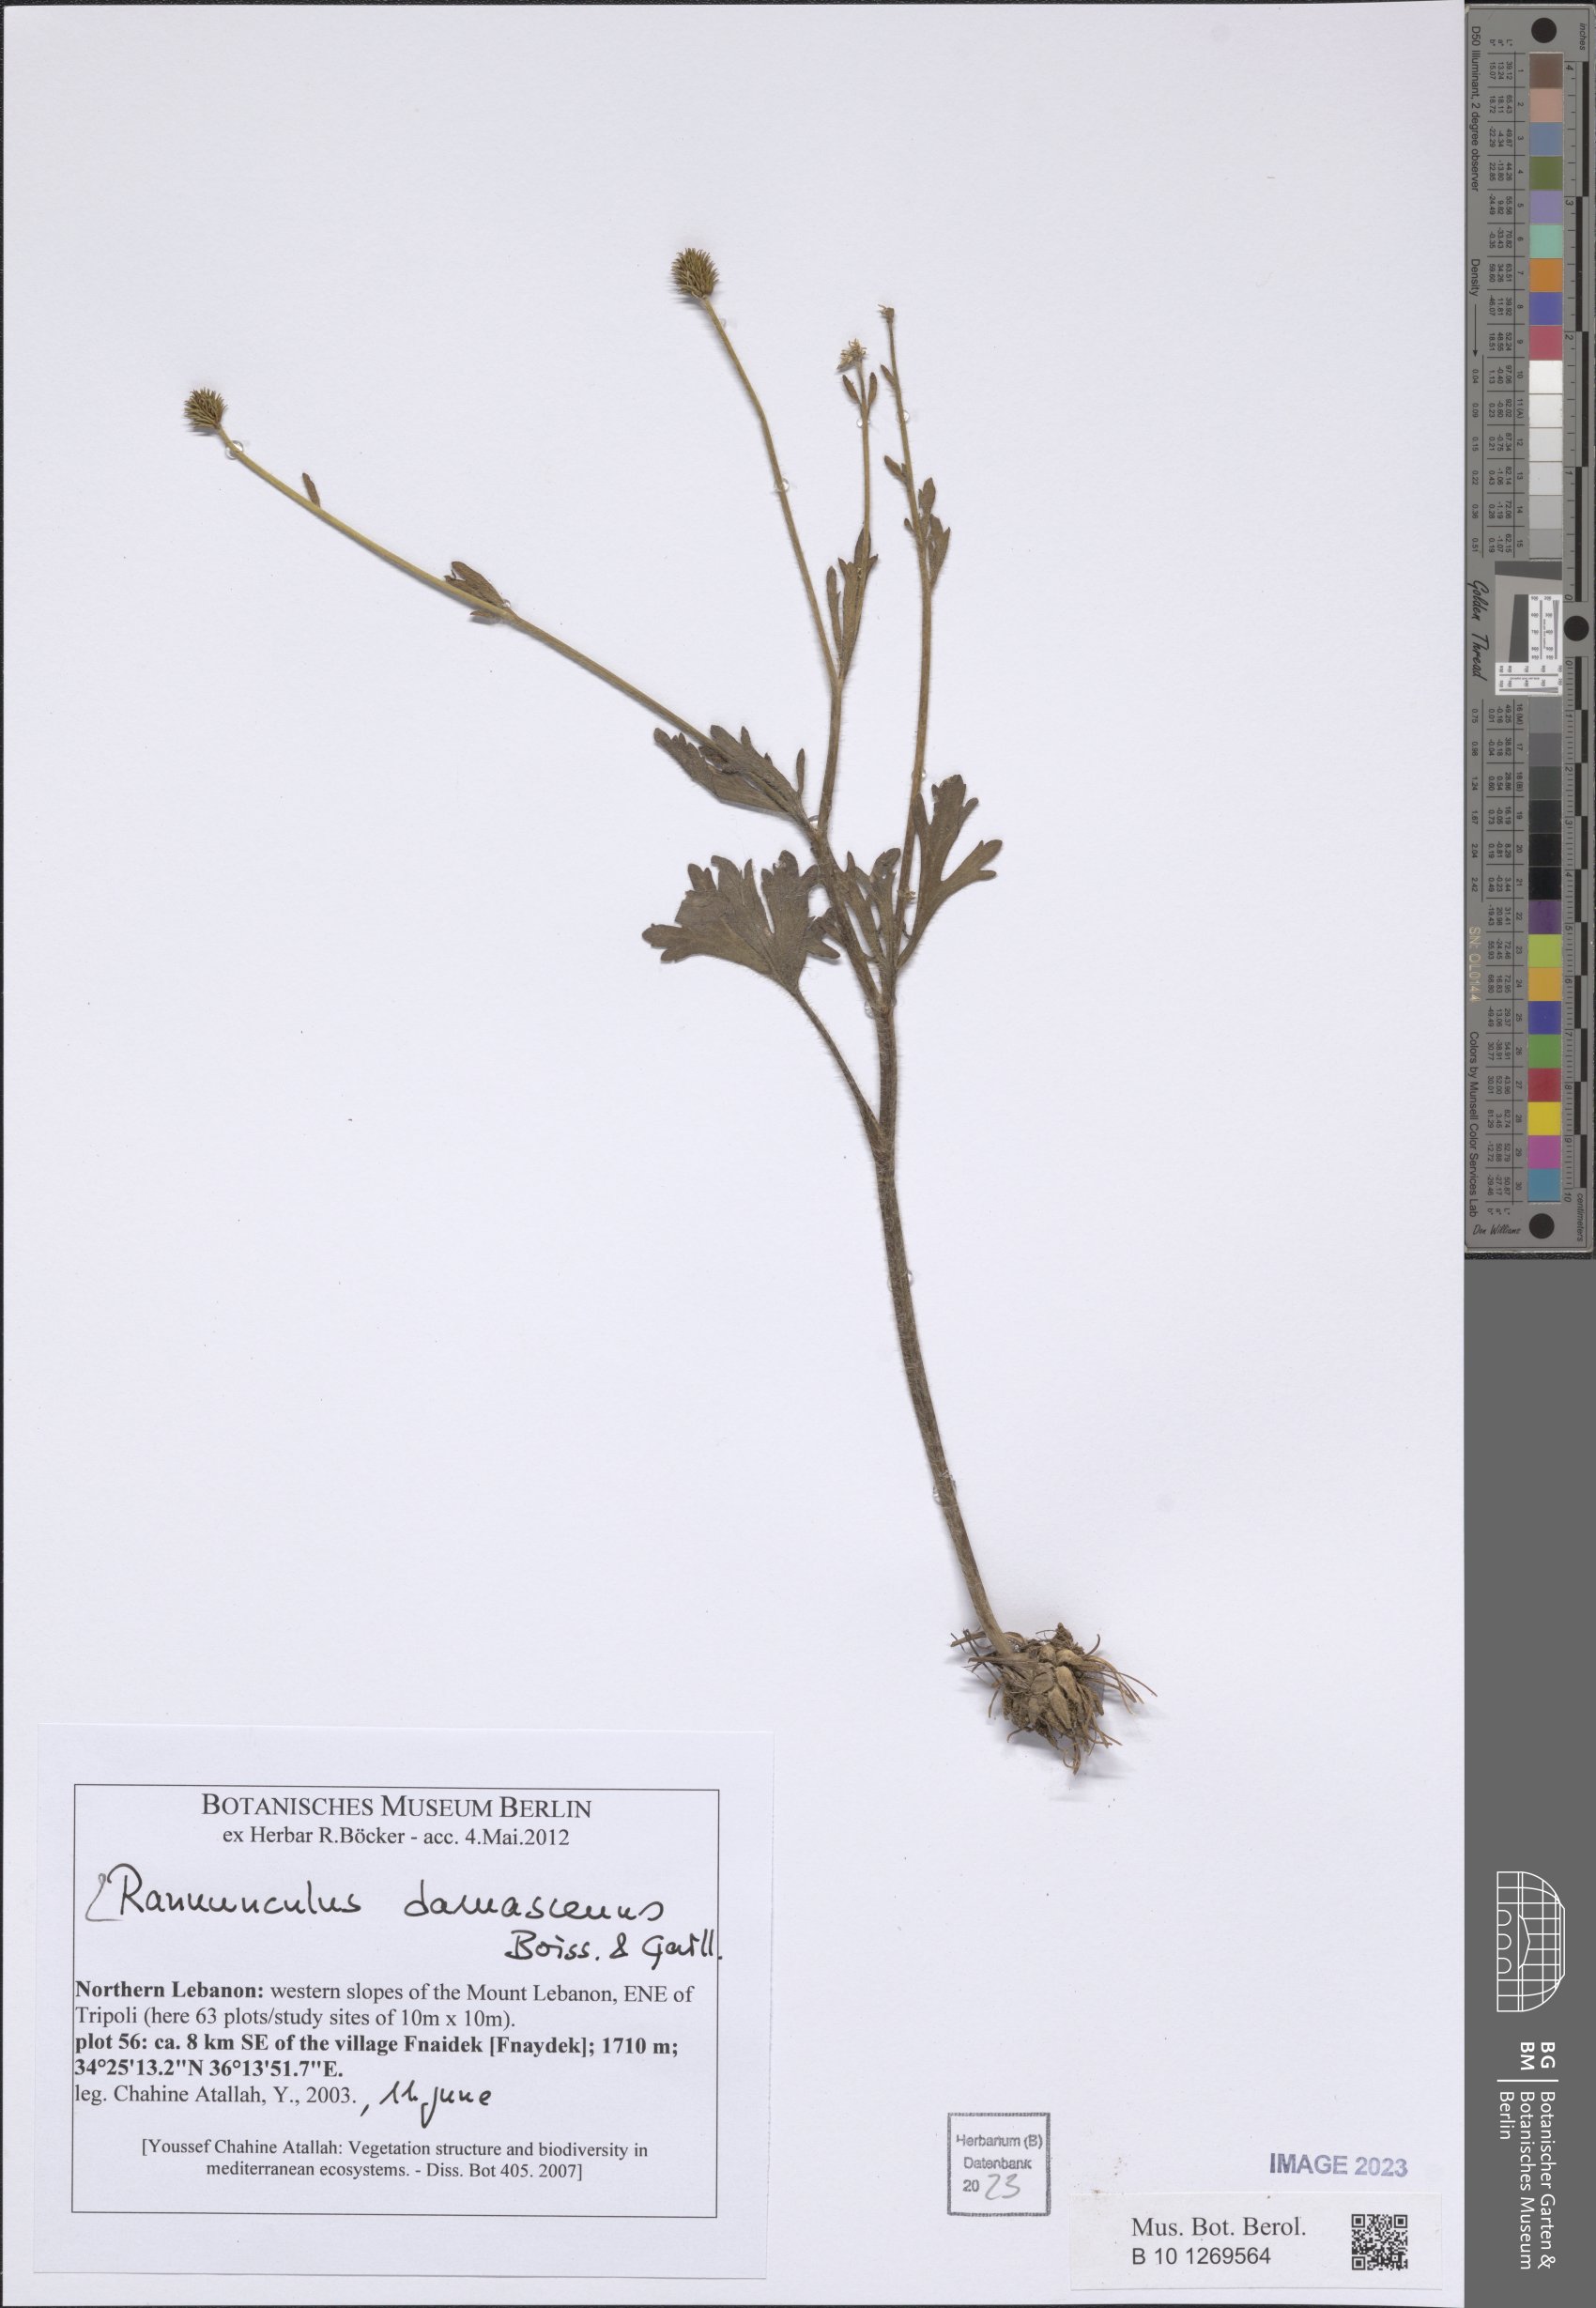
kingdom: Plantae
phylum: Tracheophyta
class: Magnoliopsida
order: Ranunculales
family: Ranunculaceae
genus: Ranunculus
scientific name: Ranunculus damascenus
